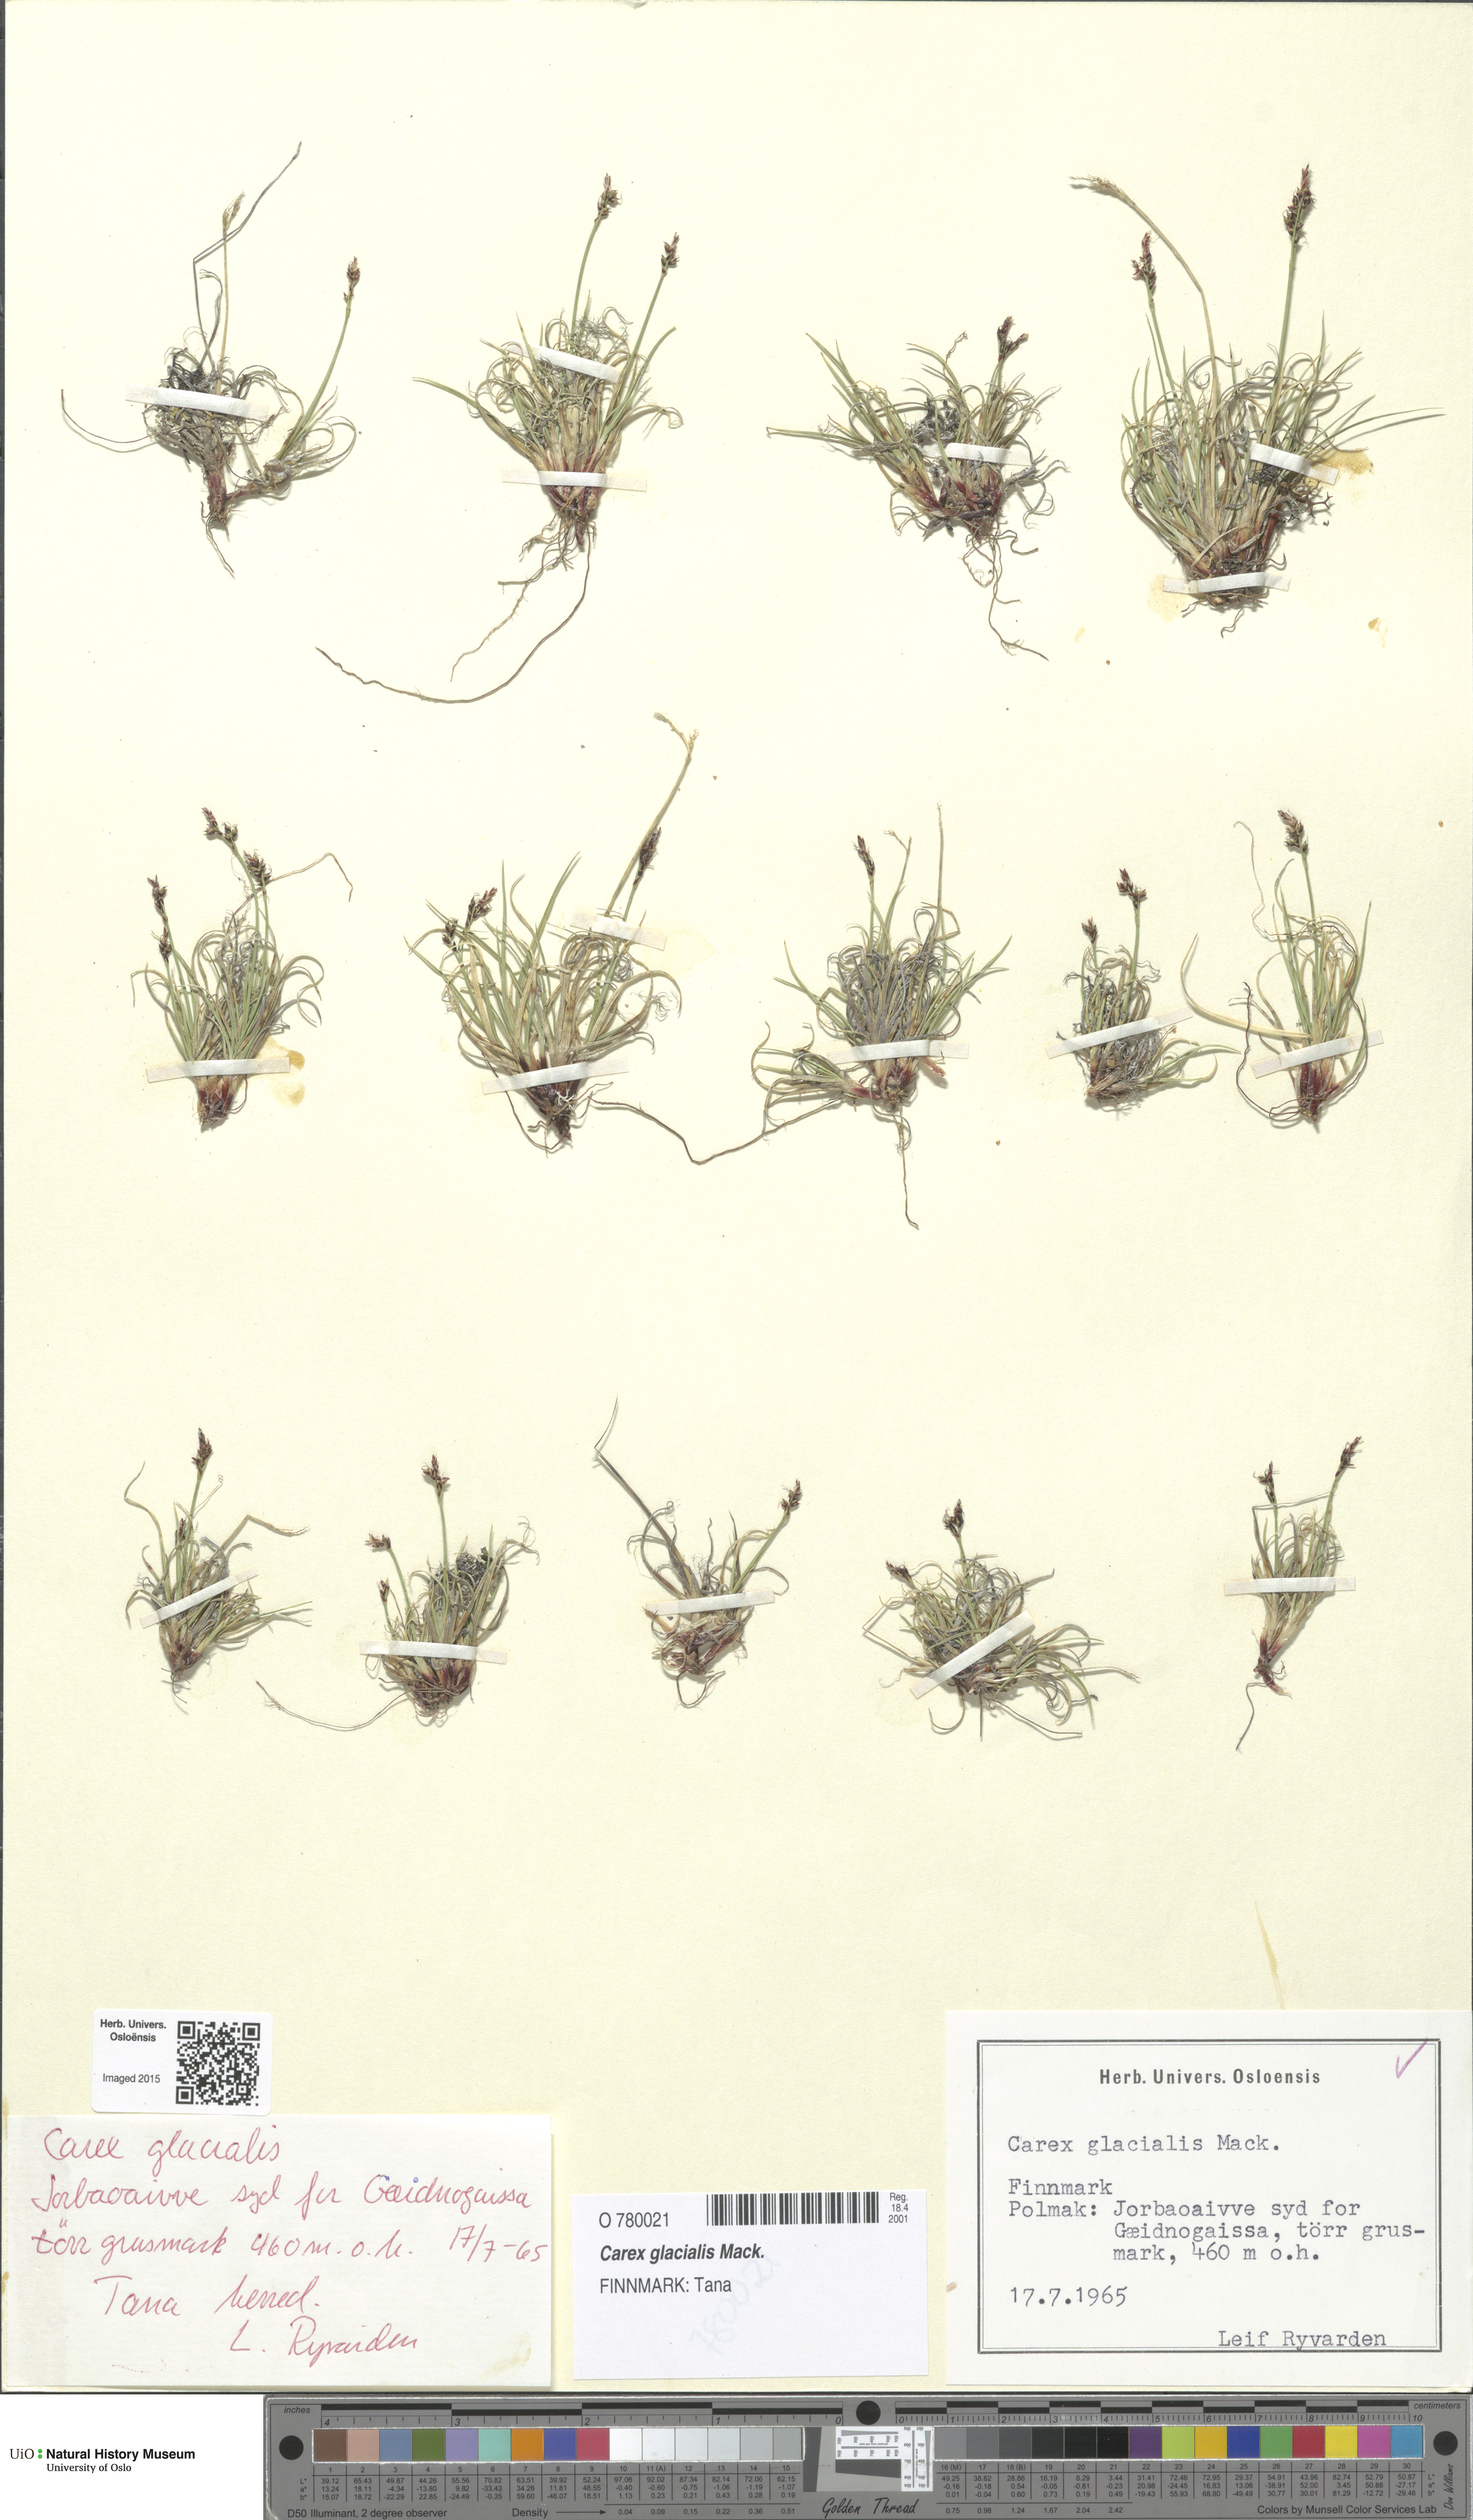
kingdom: Plantae
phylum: Tracheophyta
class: Liliopsida
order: Poales
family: Cyperaceae
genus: Carex
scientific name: Carex glacialis
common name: Newfoundland sedge
